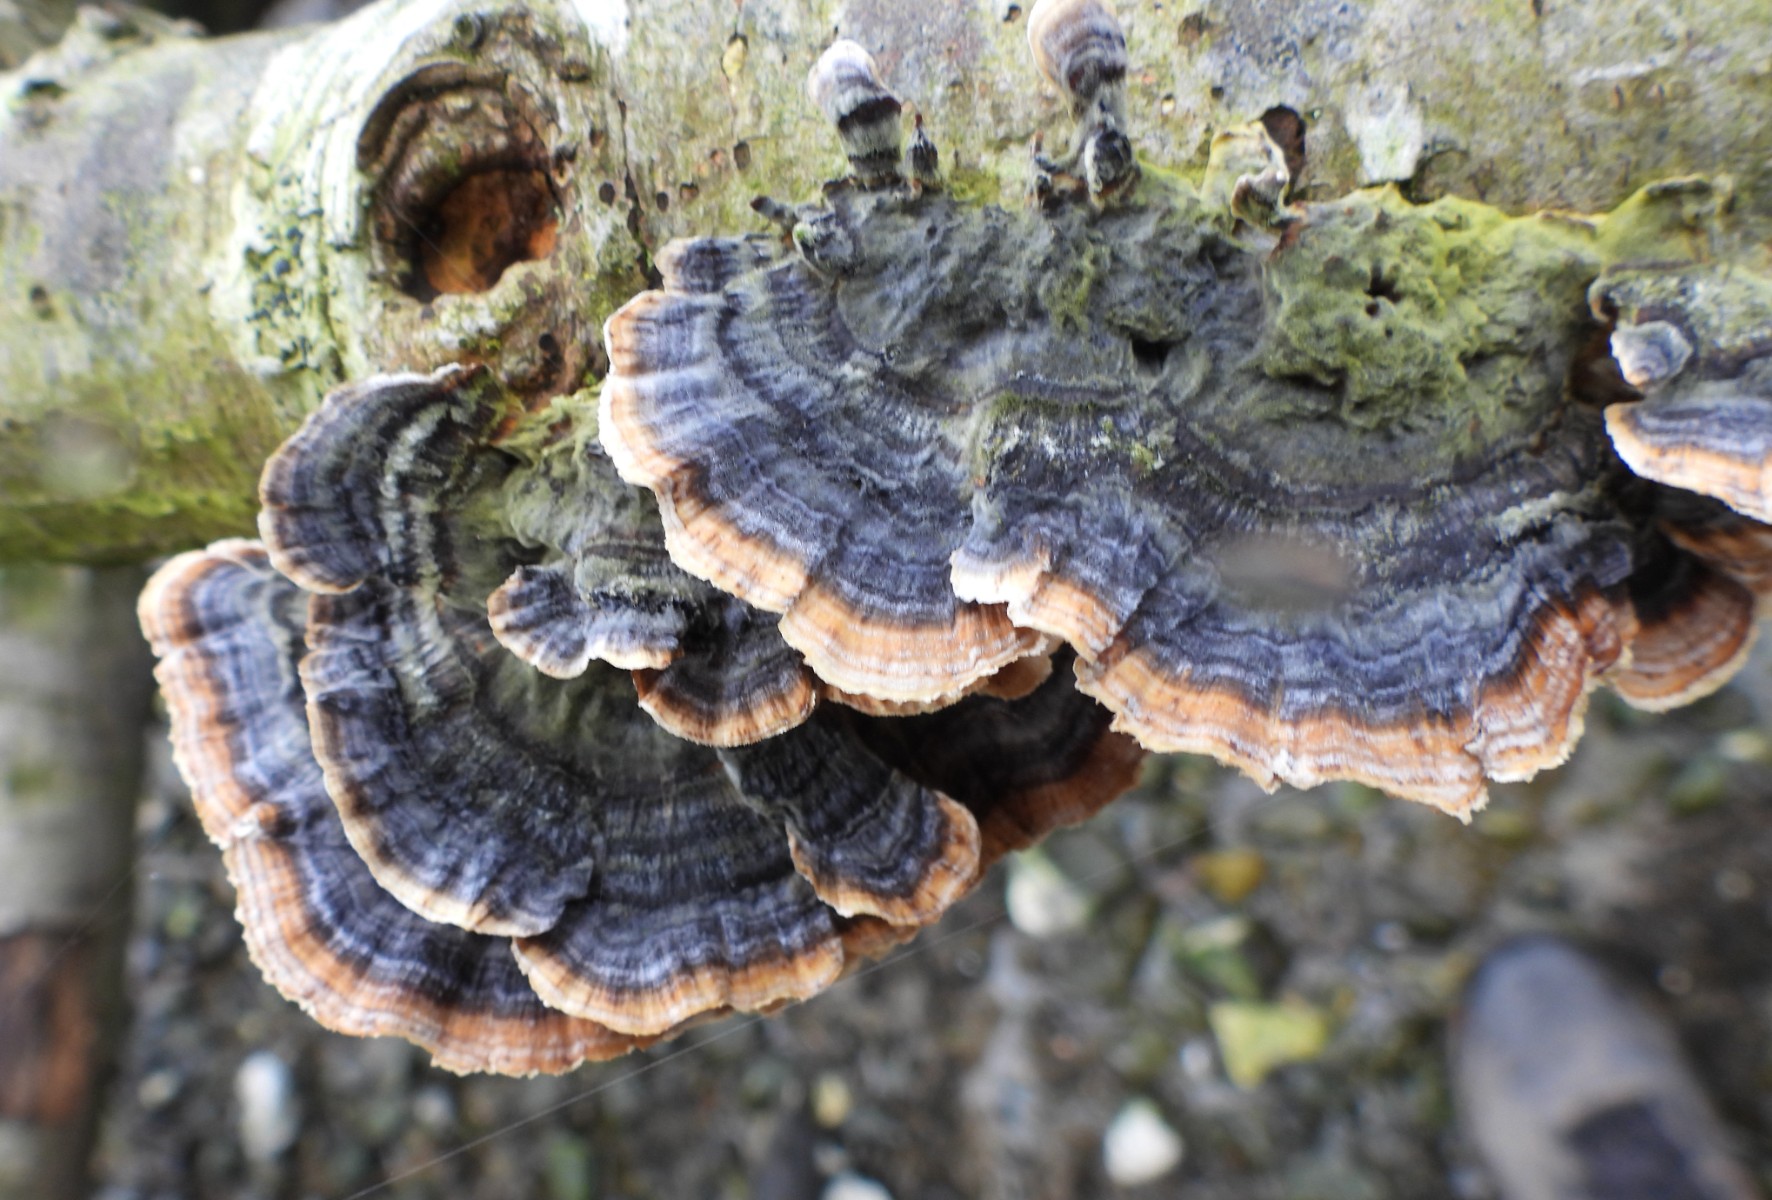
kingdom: Fungi
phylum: Basidiomycota
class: Agaricomycetes
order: Polyporales
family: Polyporaceae
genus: Trametes
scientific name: Trametes versicolor
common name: broget læderporesvamp
